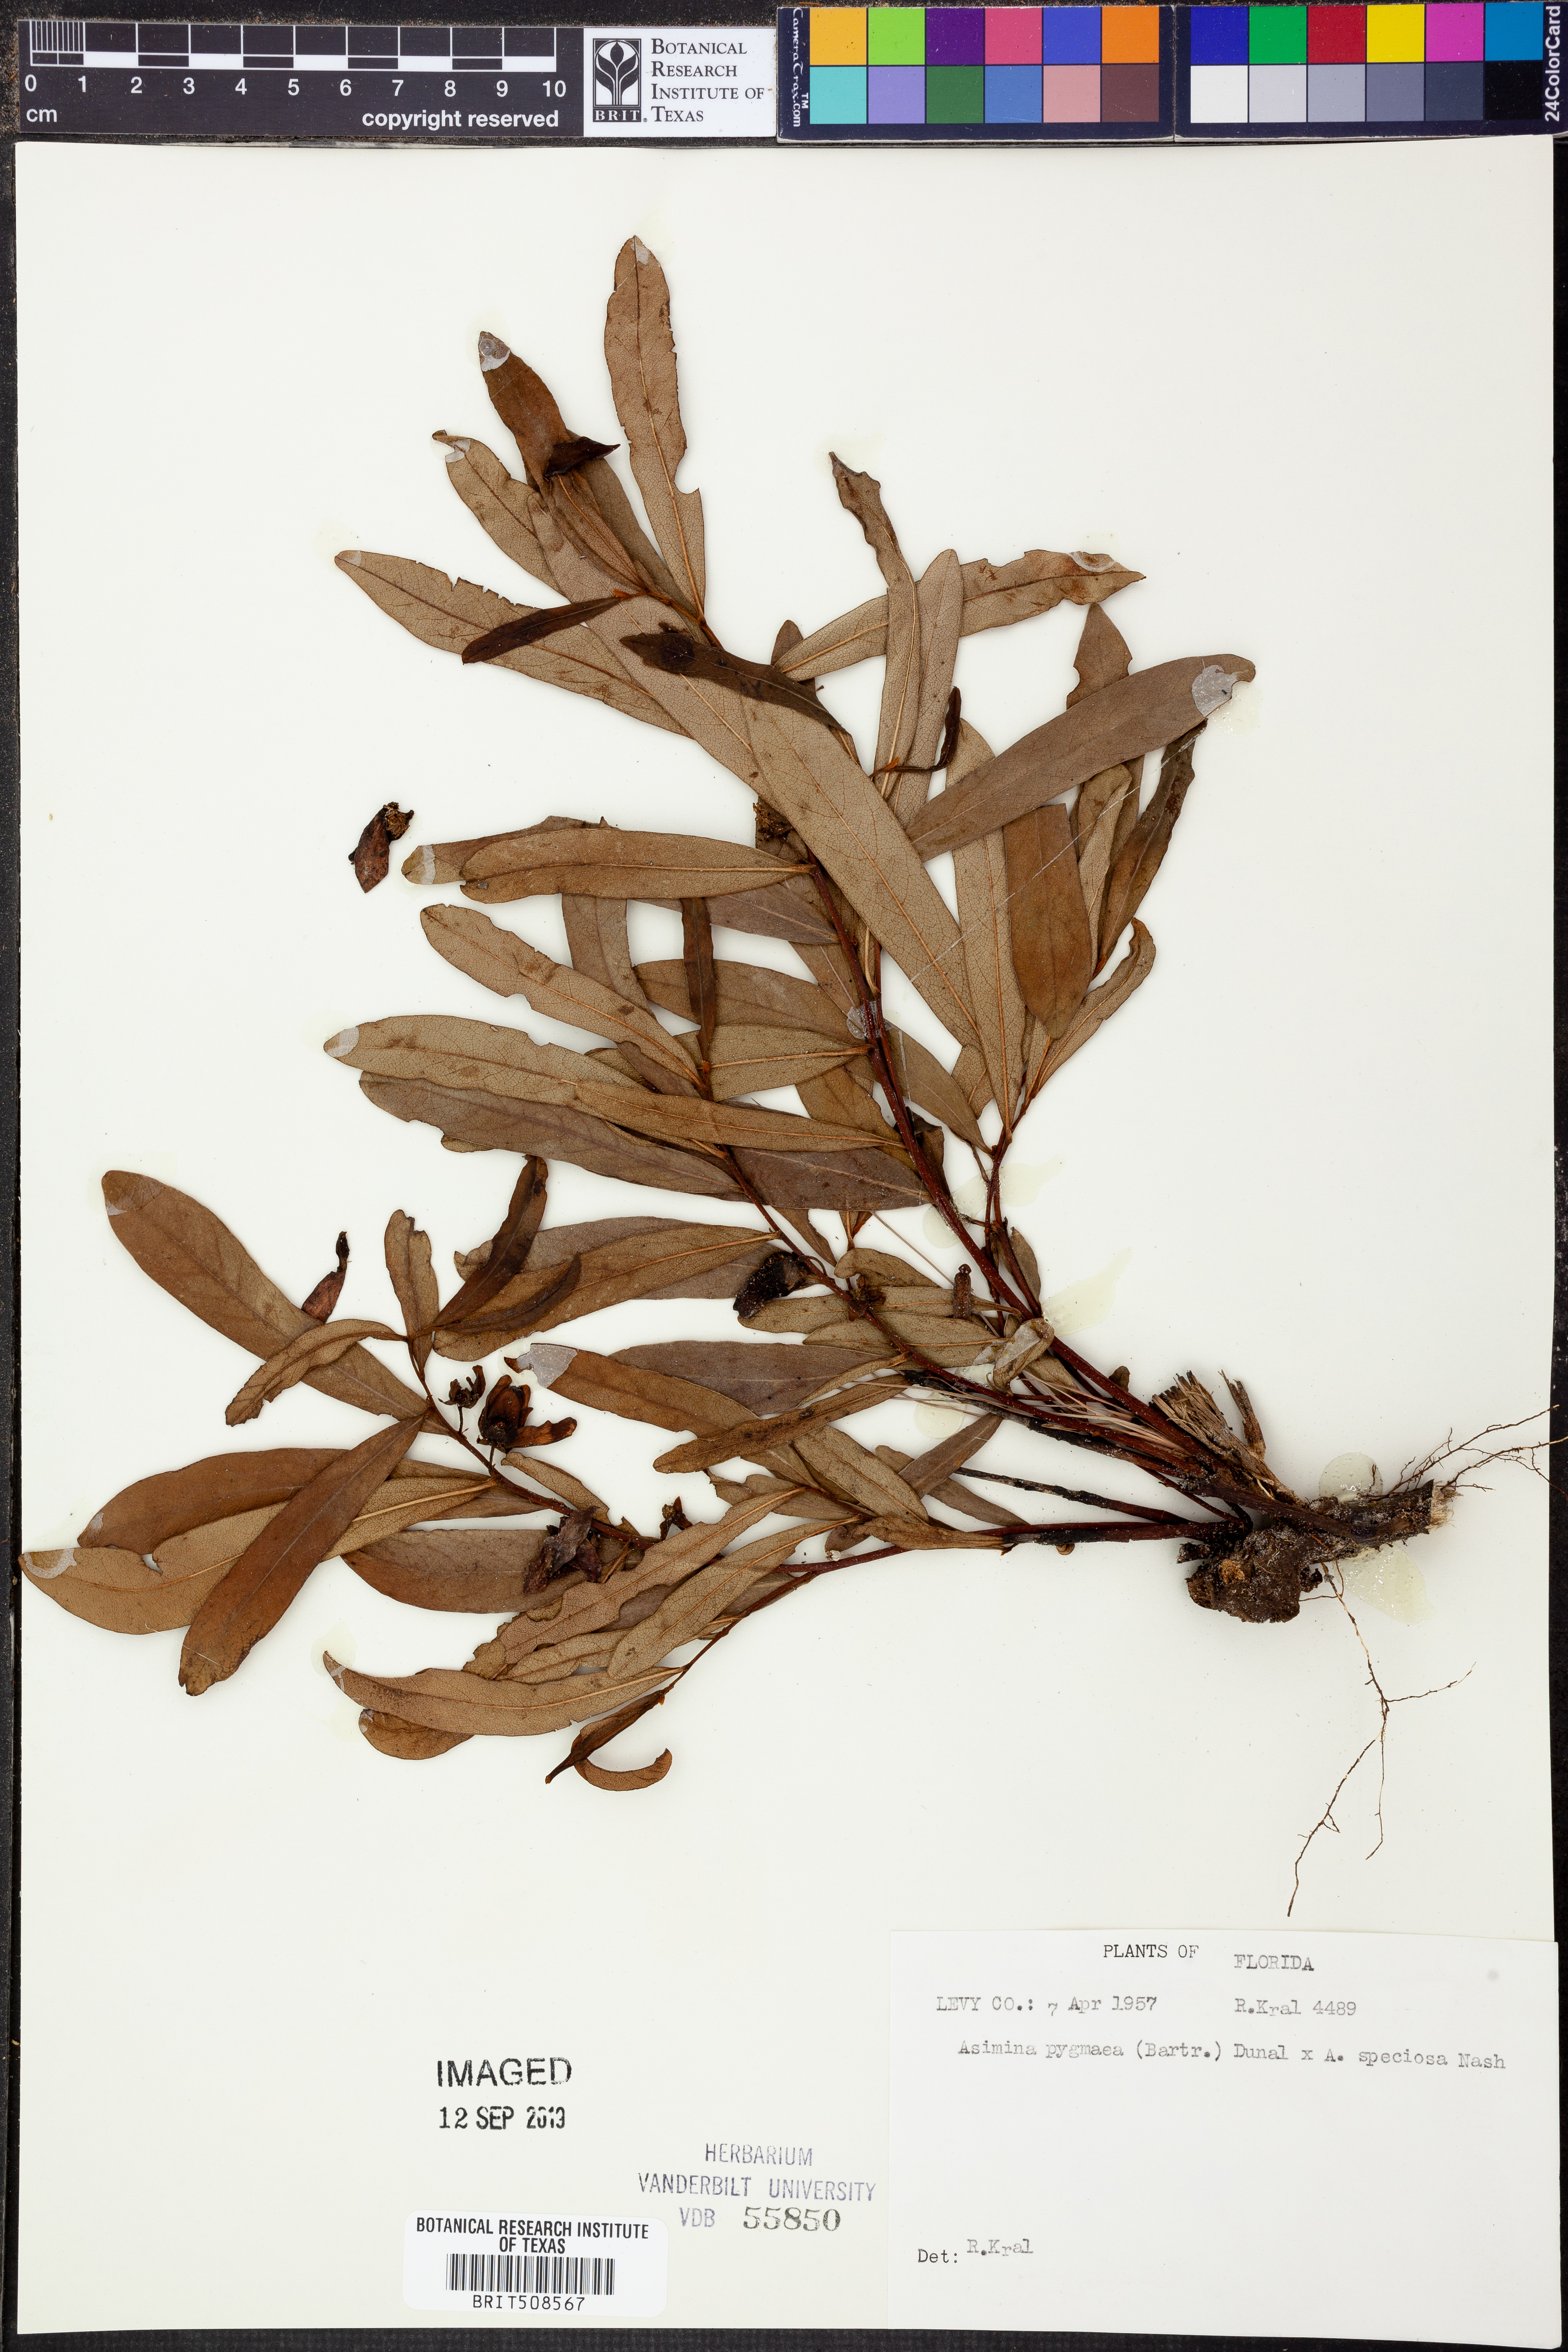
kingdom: Plantae
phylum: Tracheophyta
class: Magnoliopsida
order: Magnoliales
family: Annonaceae
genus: Asimina
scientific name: Asimina pygmaea
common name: Dwarf pawpaw
